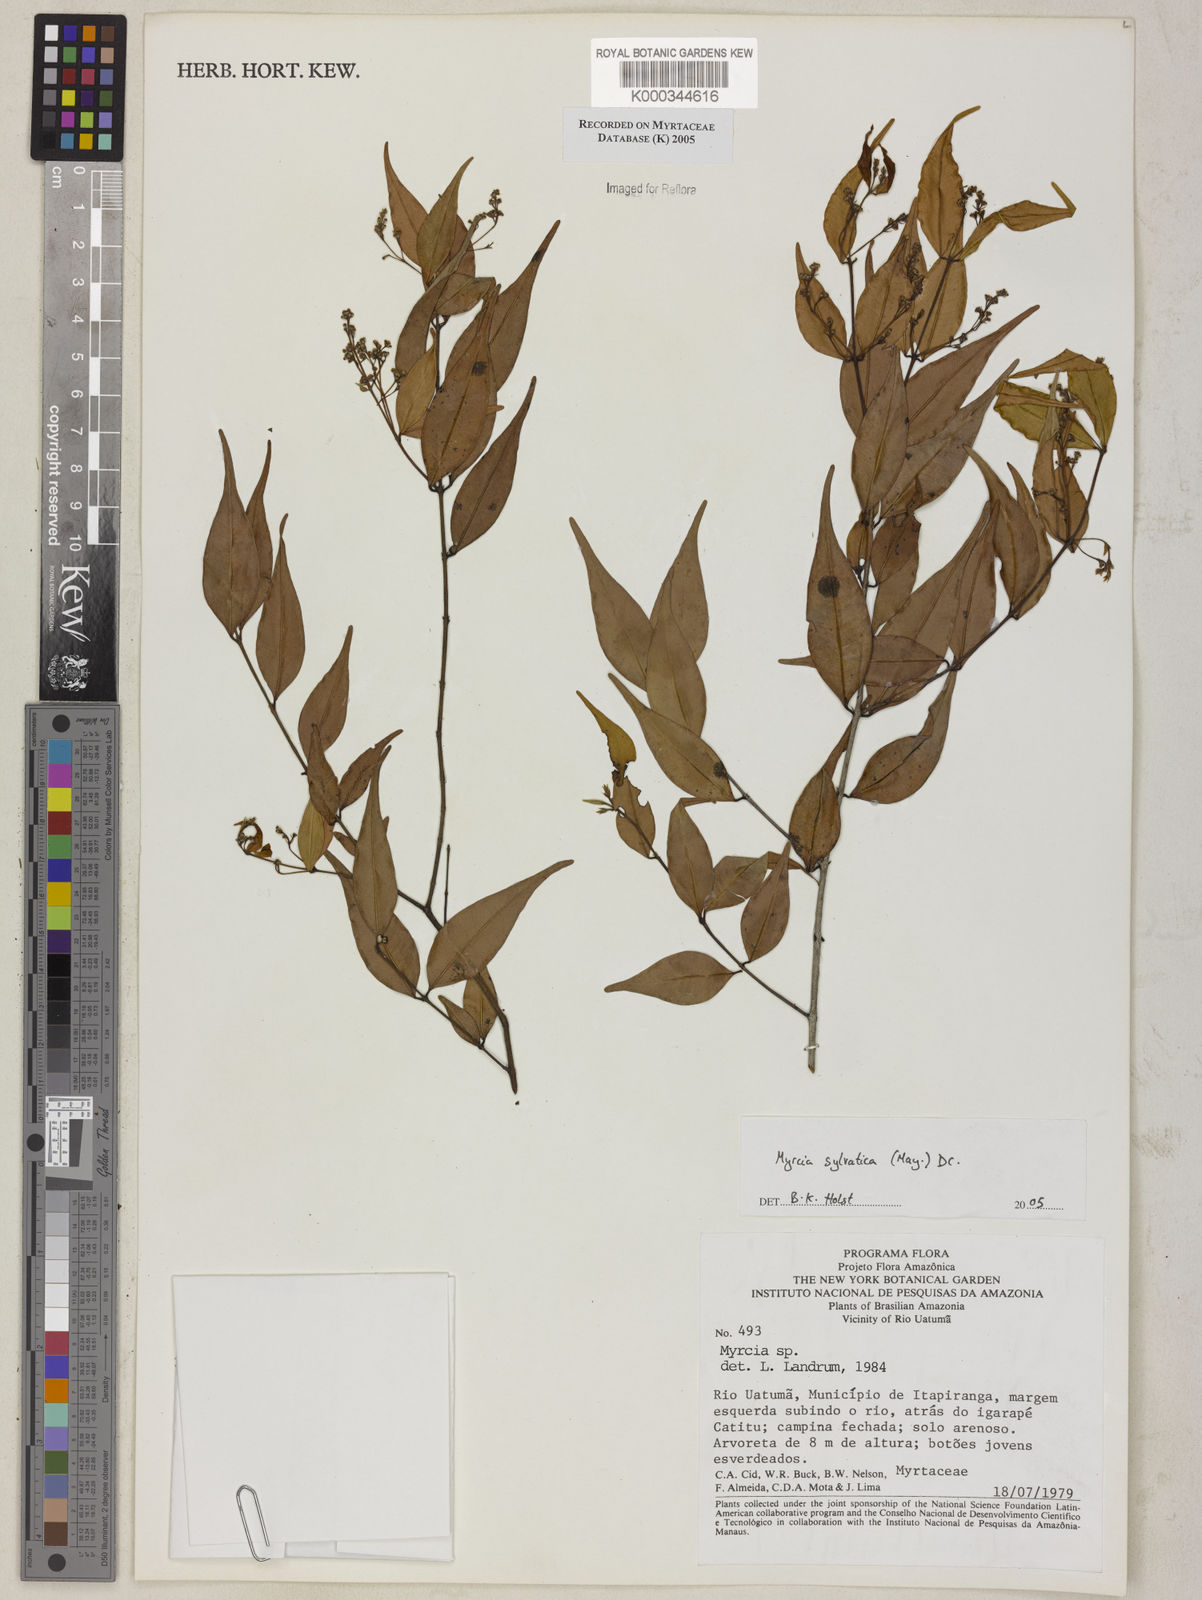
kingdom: Plantae
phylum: Tracheophyta
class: Magnoliopsida
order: Myrtales
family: Myrtaceae
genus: Myrcia
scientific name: Myrcia sylvatica
